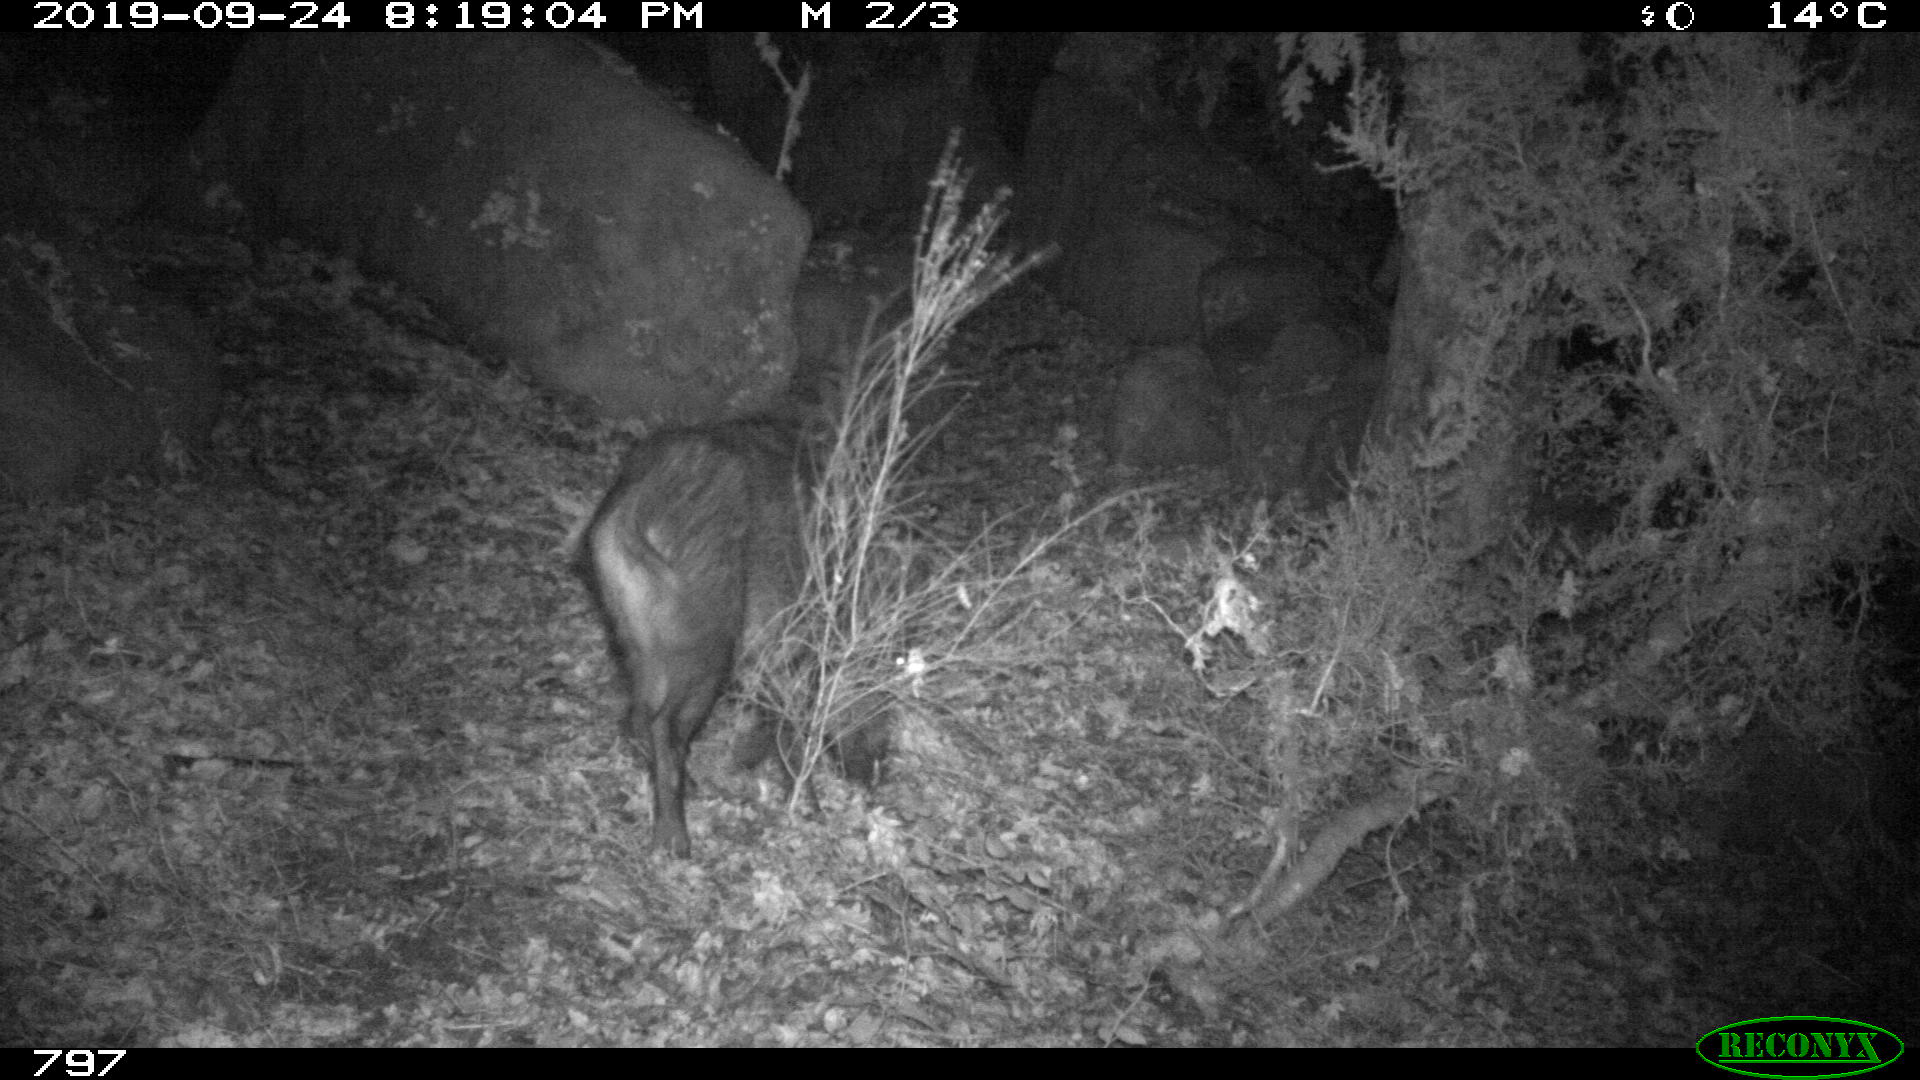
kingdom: Animalia
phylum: Chordata
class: Mammalia
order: Artiodactyla
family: Suidae
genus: Sus
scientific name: Sus scrofa
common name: Wild boar
